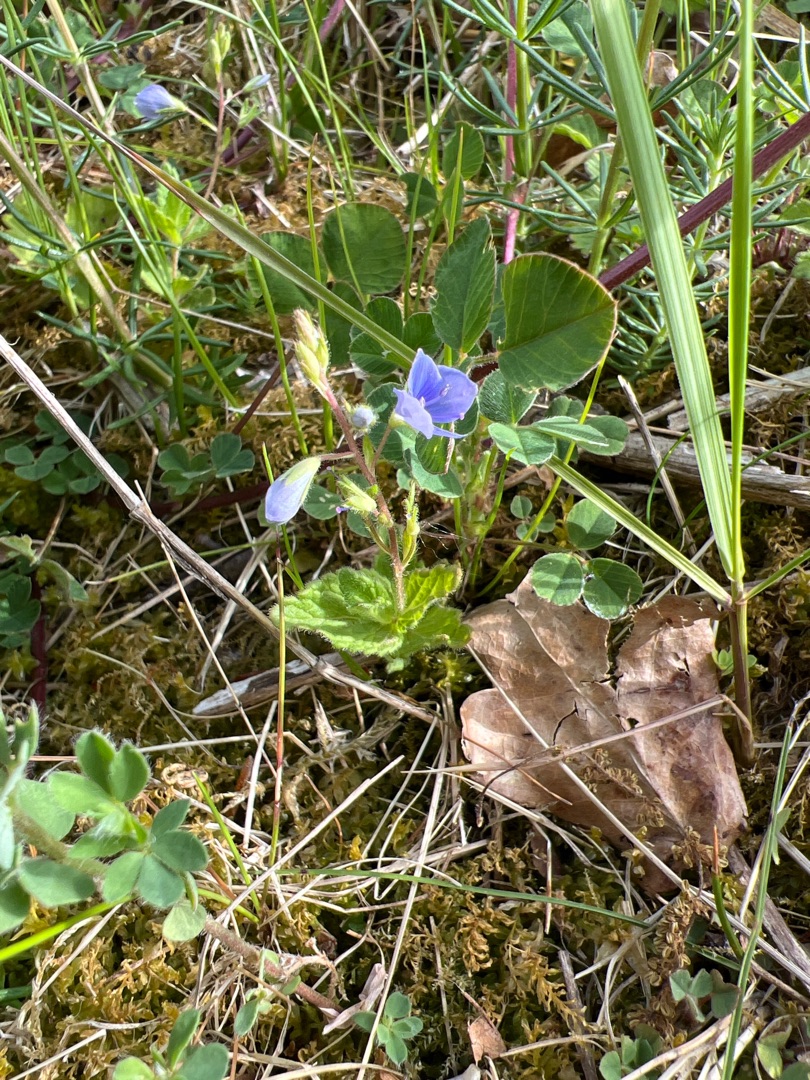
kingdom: Plantae
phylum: Tracheophyta
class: Magnoliopsida
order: Lamiales
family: Plantaginaceae
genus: Veronica
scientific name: Veronica chamaedrys
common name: Tveskægget ærenpris
